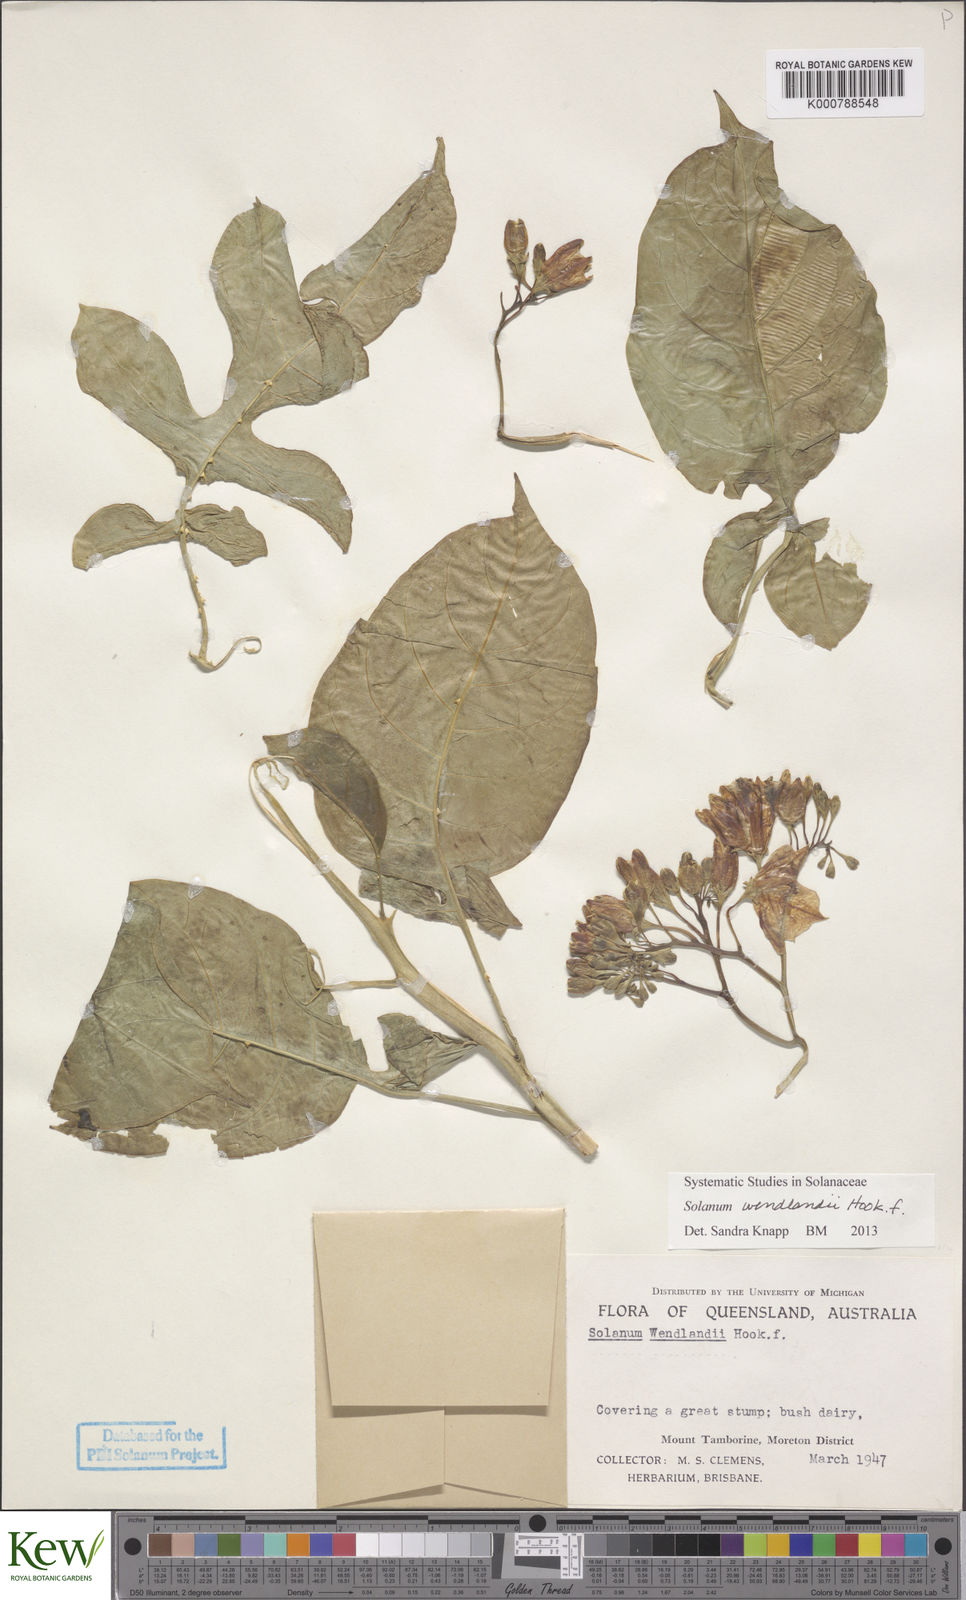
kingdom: Plantae
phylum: Tracheophyta
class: Magnoliopsida
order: Solanales
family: Solanaceae
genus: Solanum
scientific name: Solanum wendlandii
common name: Costa rican nightshade
